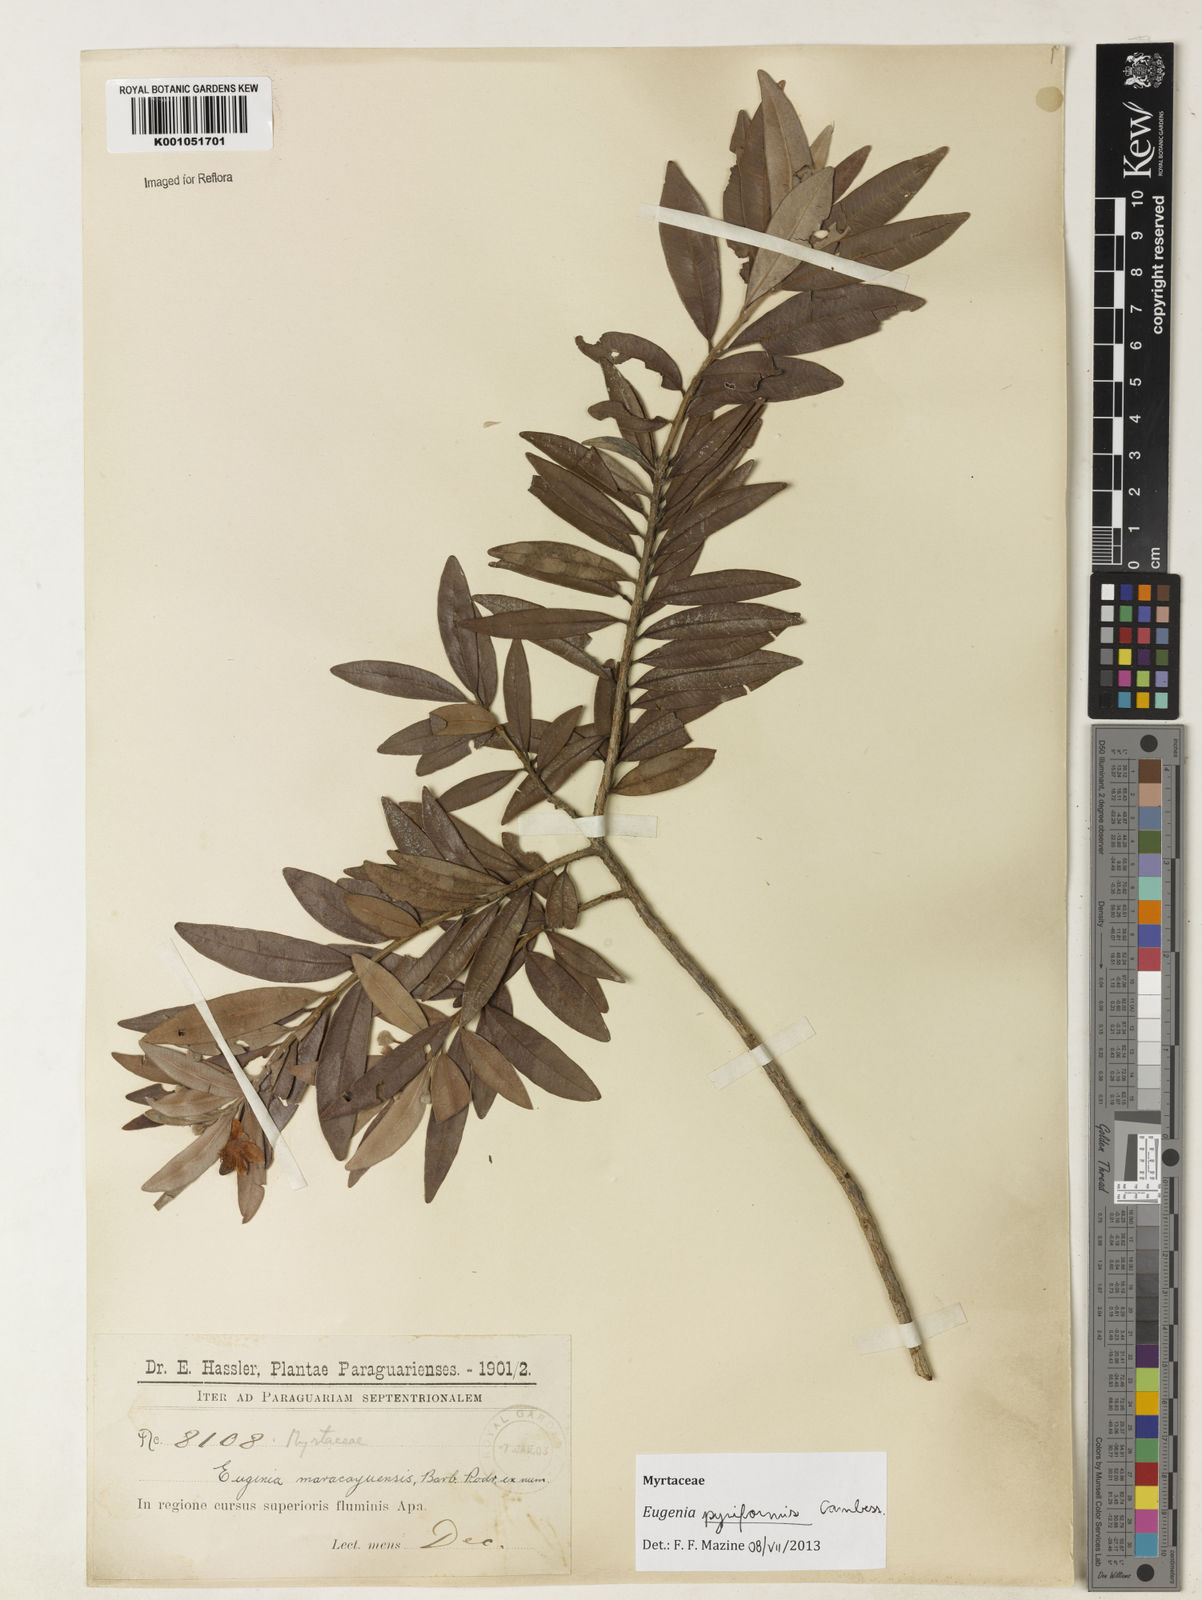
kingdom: Plantae
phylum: Tracheophyta
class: Magnoliopsida
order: Myrtales
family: Myrtaceae
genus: Eugenia
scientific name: Eugenia pyriformis
